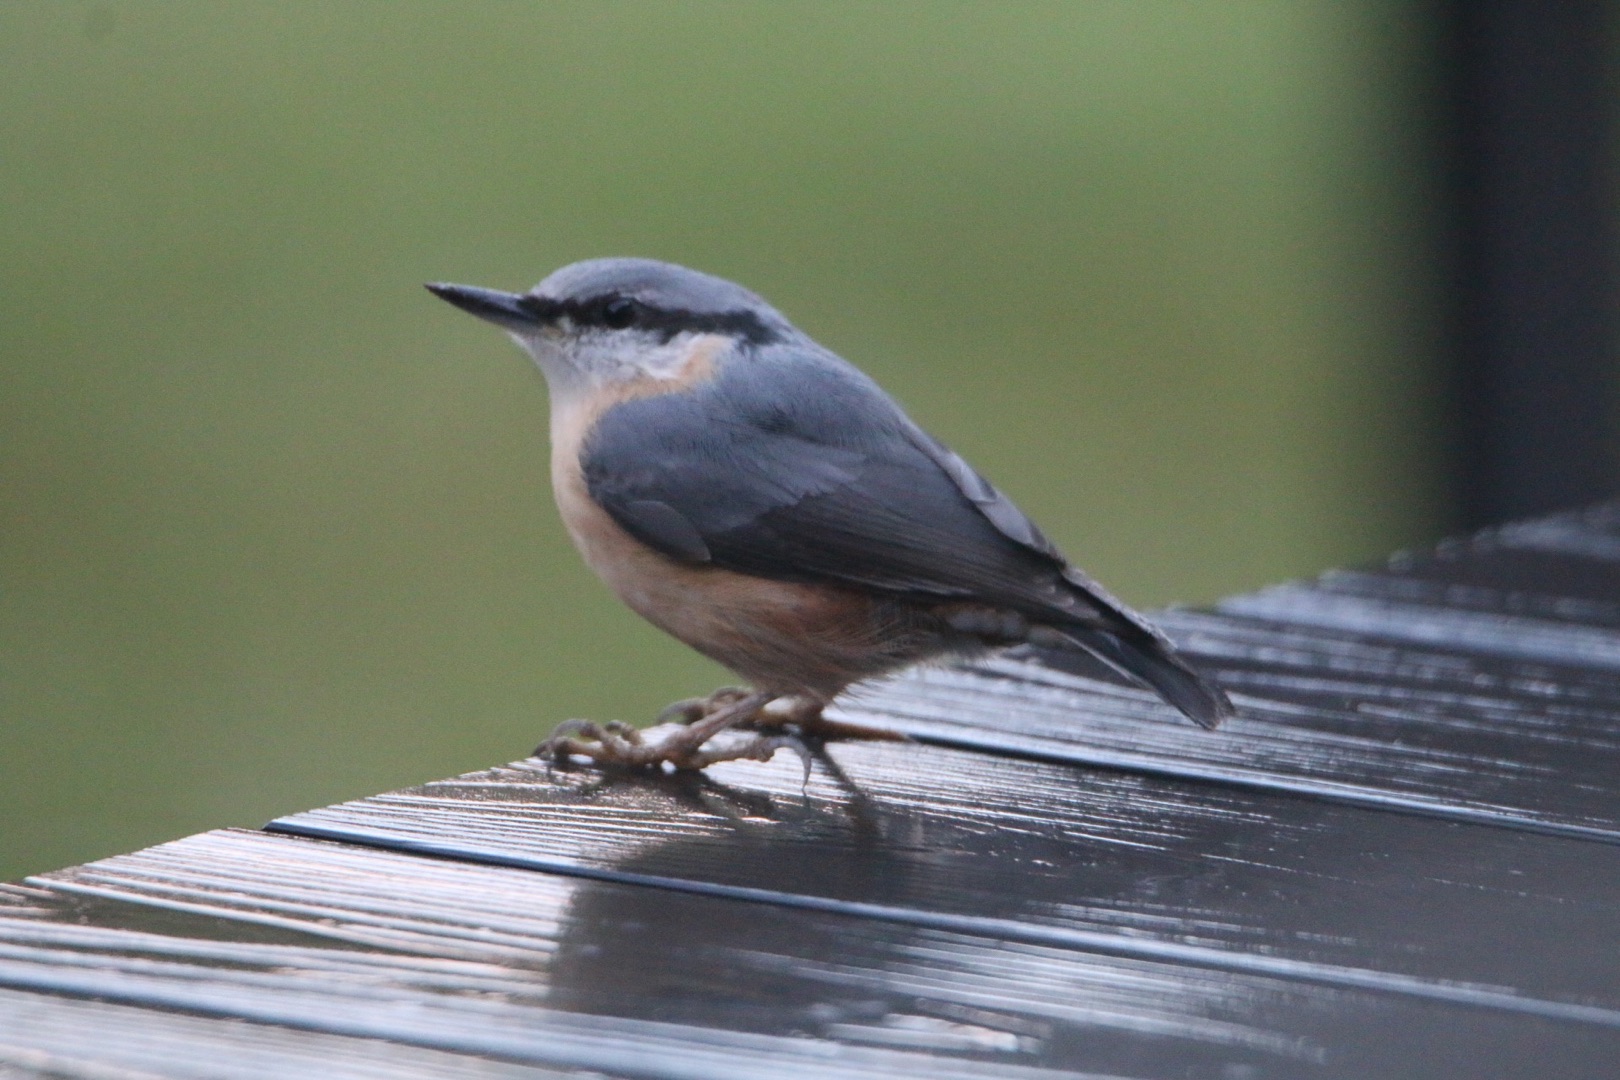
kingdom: Animalia
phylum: Chordata
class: Aves
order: Passeriformes
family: Sittidae
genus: Sitta
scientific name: Sitta europaea
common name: Spætmejse
